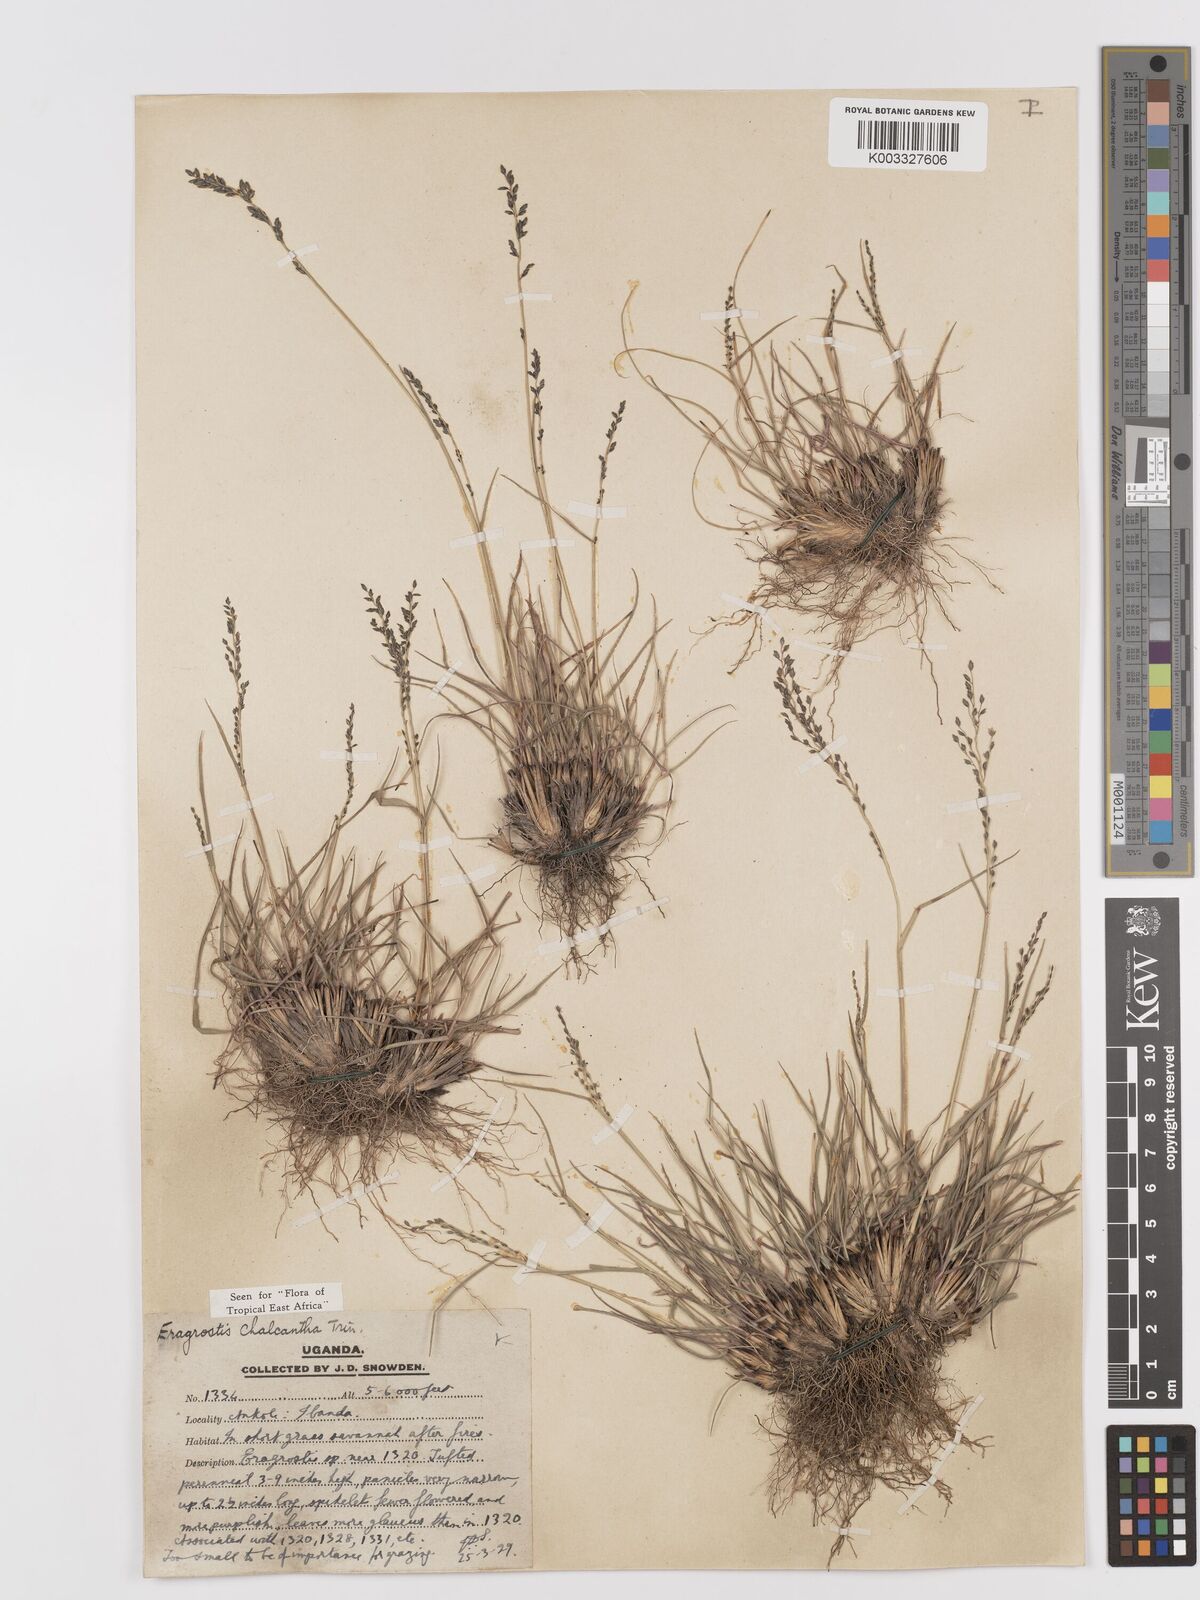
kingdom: Plantae
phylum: Tracheophyta
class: Liliopsida
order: Poales
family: Poaceae
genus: Eragrostis
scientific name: Eragrostis racemosa
